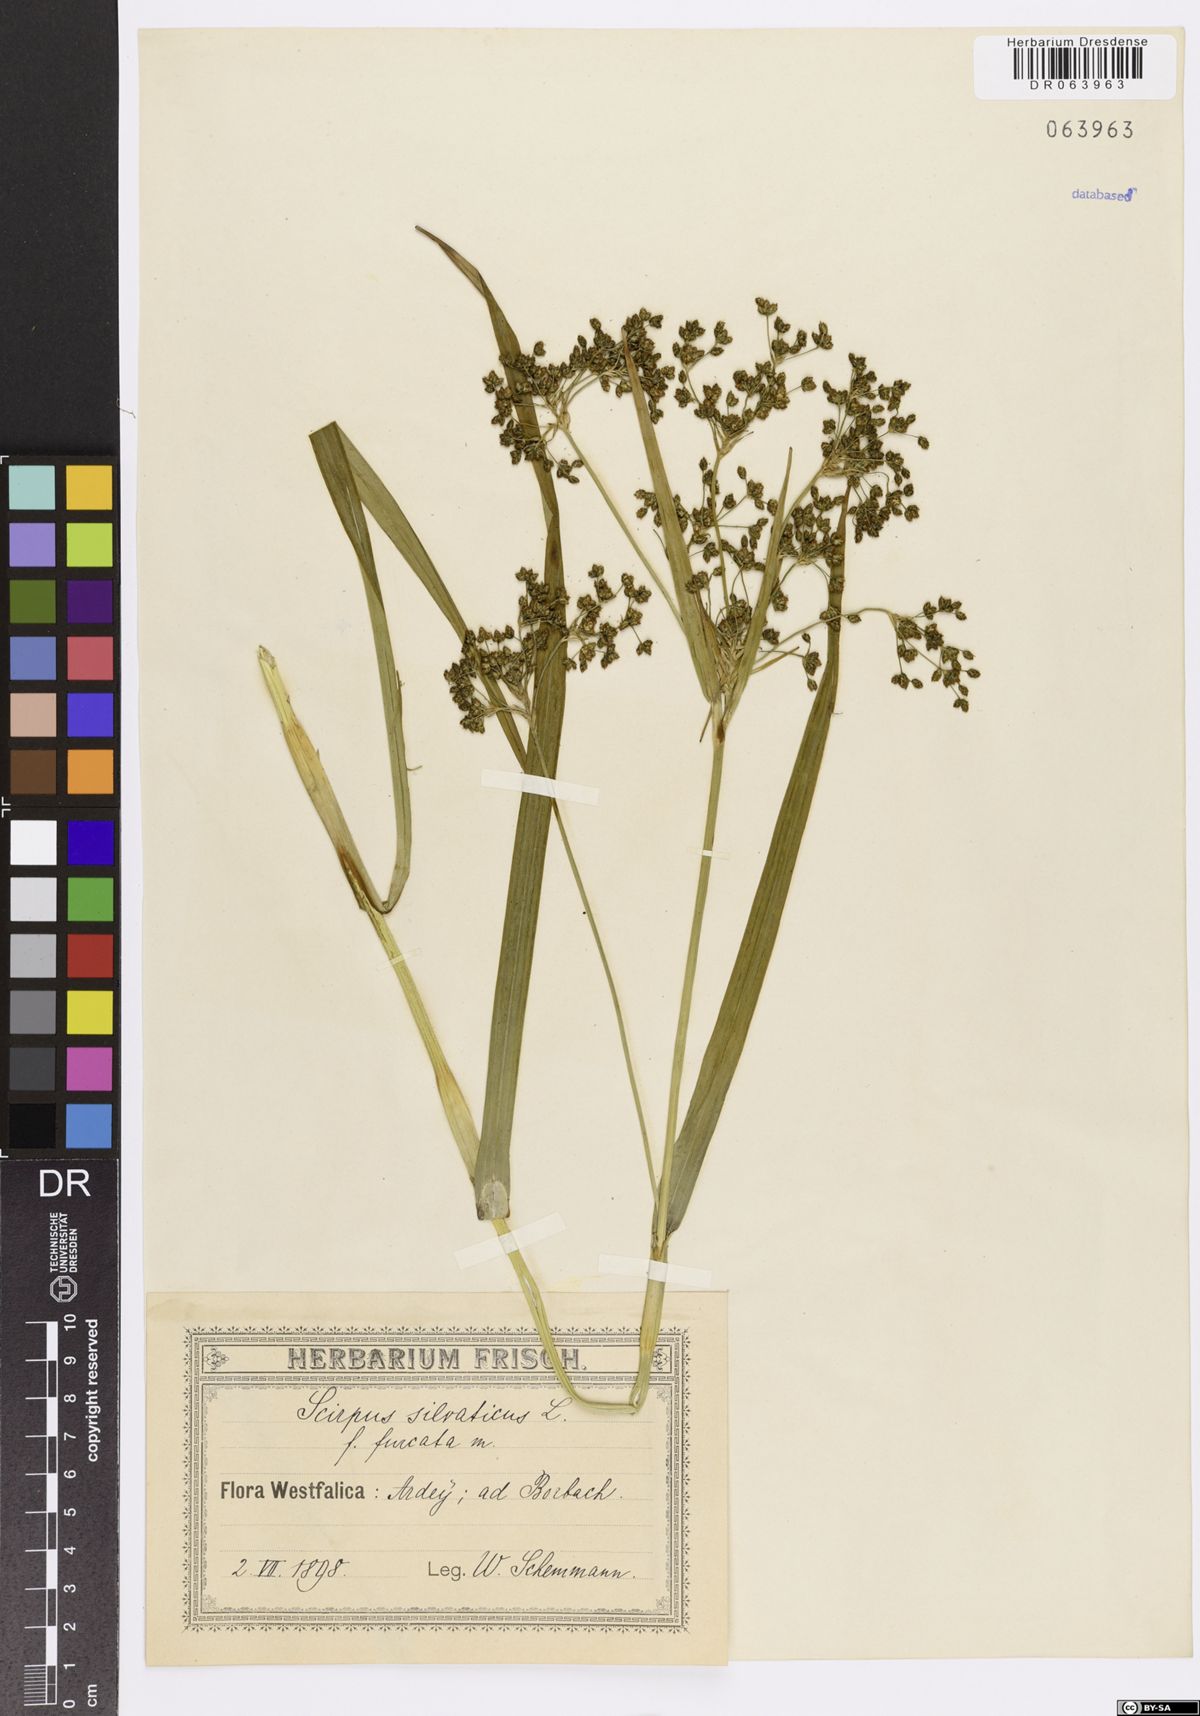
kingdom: Plantae
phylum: Tracheophyta
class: Liliopsida
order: Poales
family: Cyperaceae
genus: Scirpus
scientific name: Scirpus sylvaticus
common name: Wood club-rush
